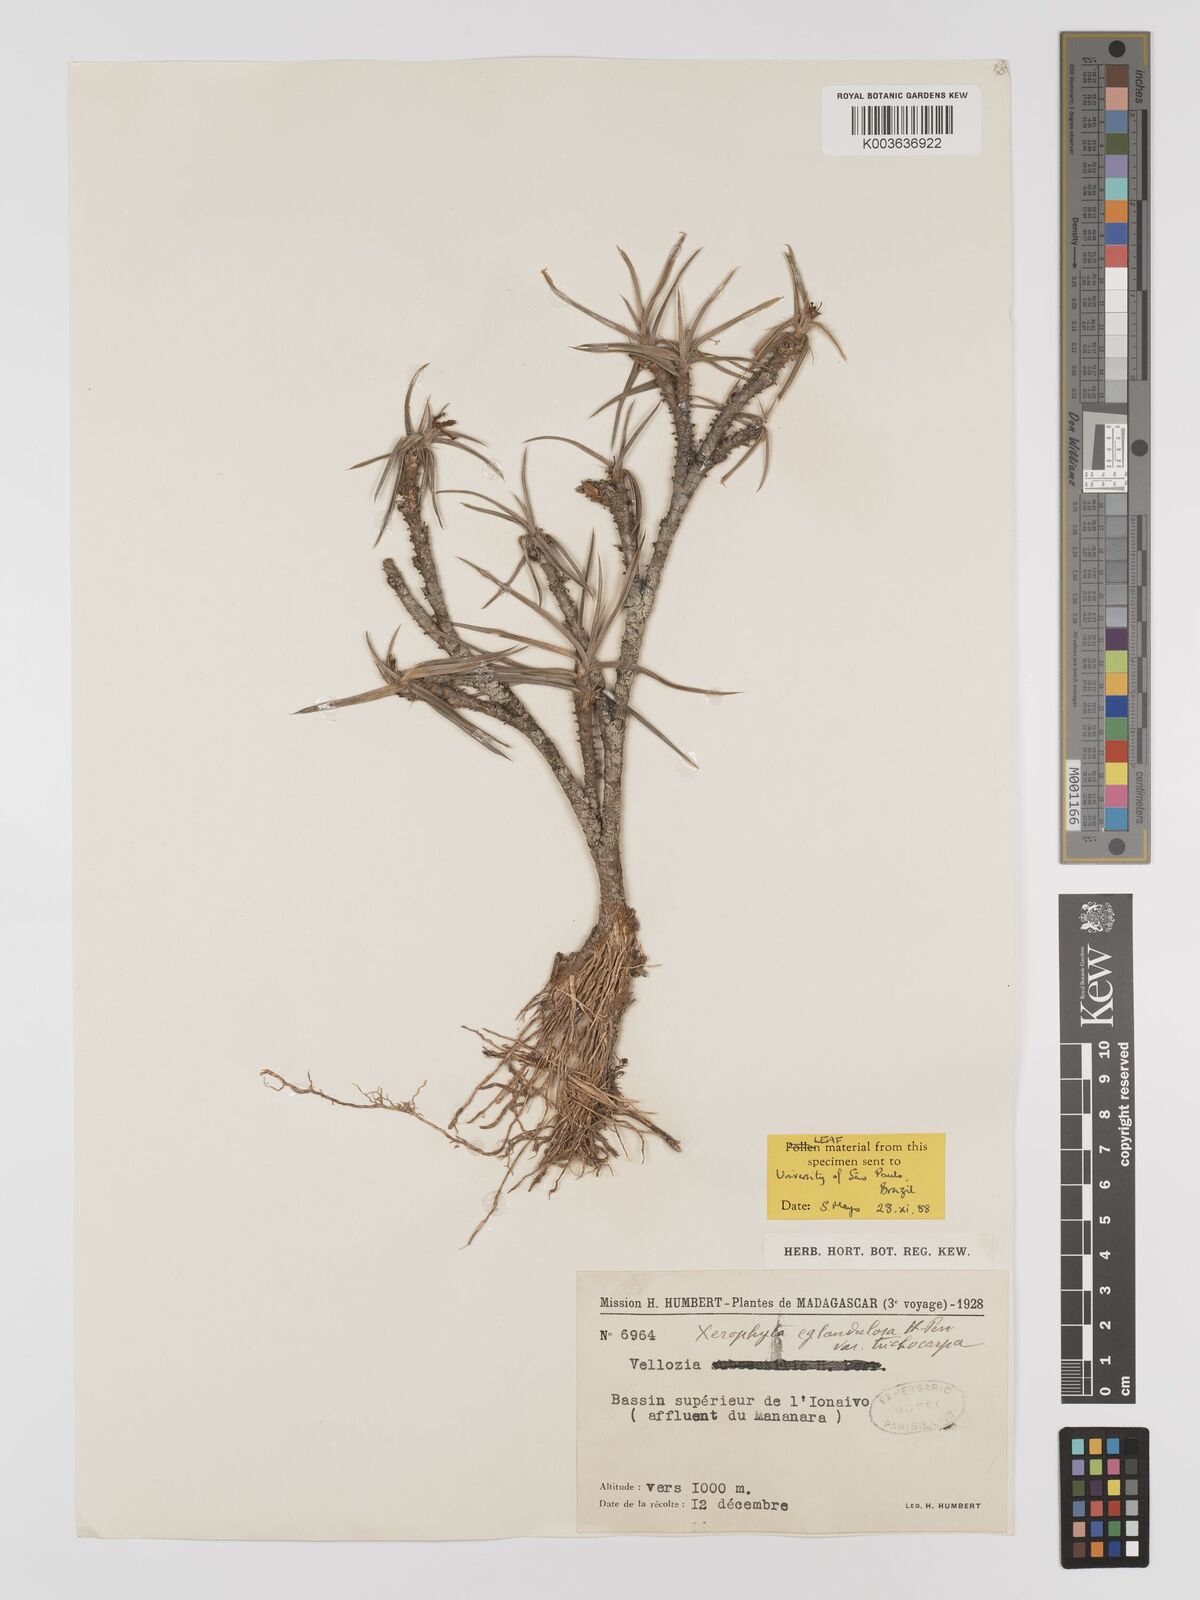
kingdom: Plantae
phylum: Tracheophyta
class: Liliopsida
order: Pandanales
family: Velloziaceae
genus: Xerophyta
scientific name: Xerophyta eglandulosa
